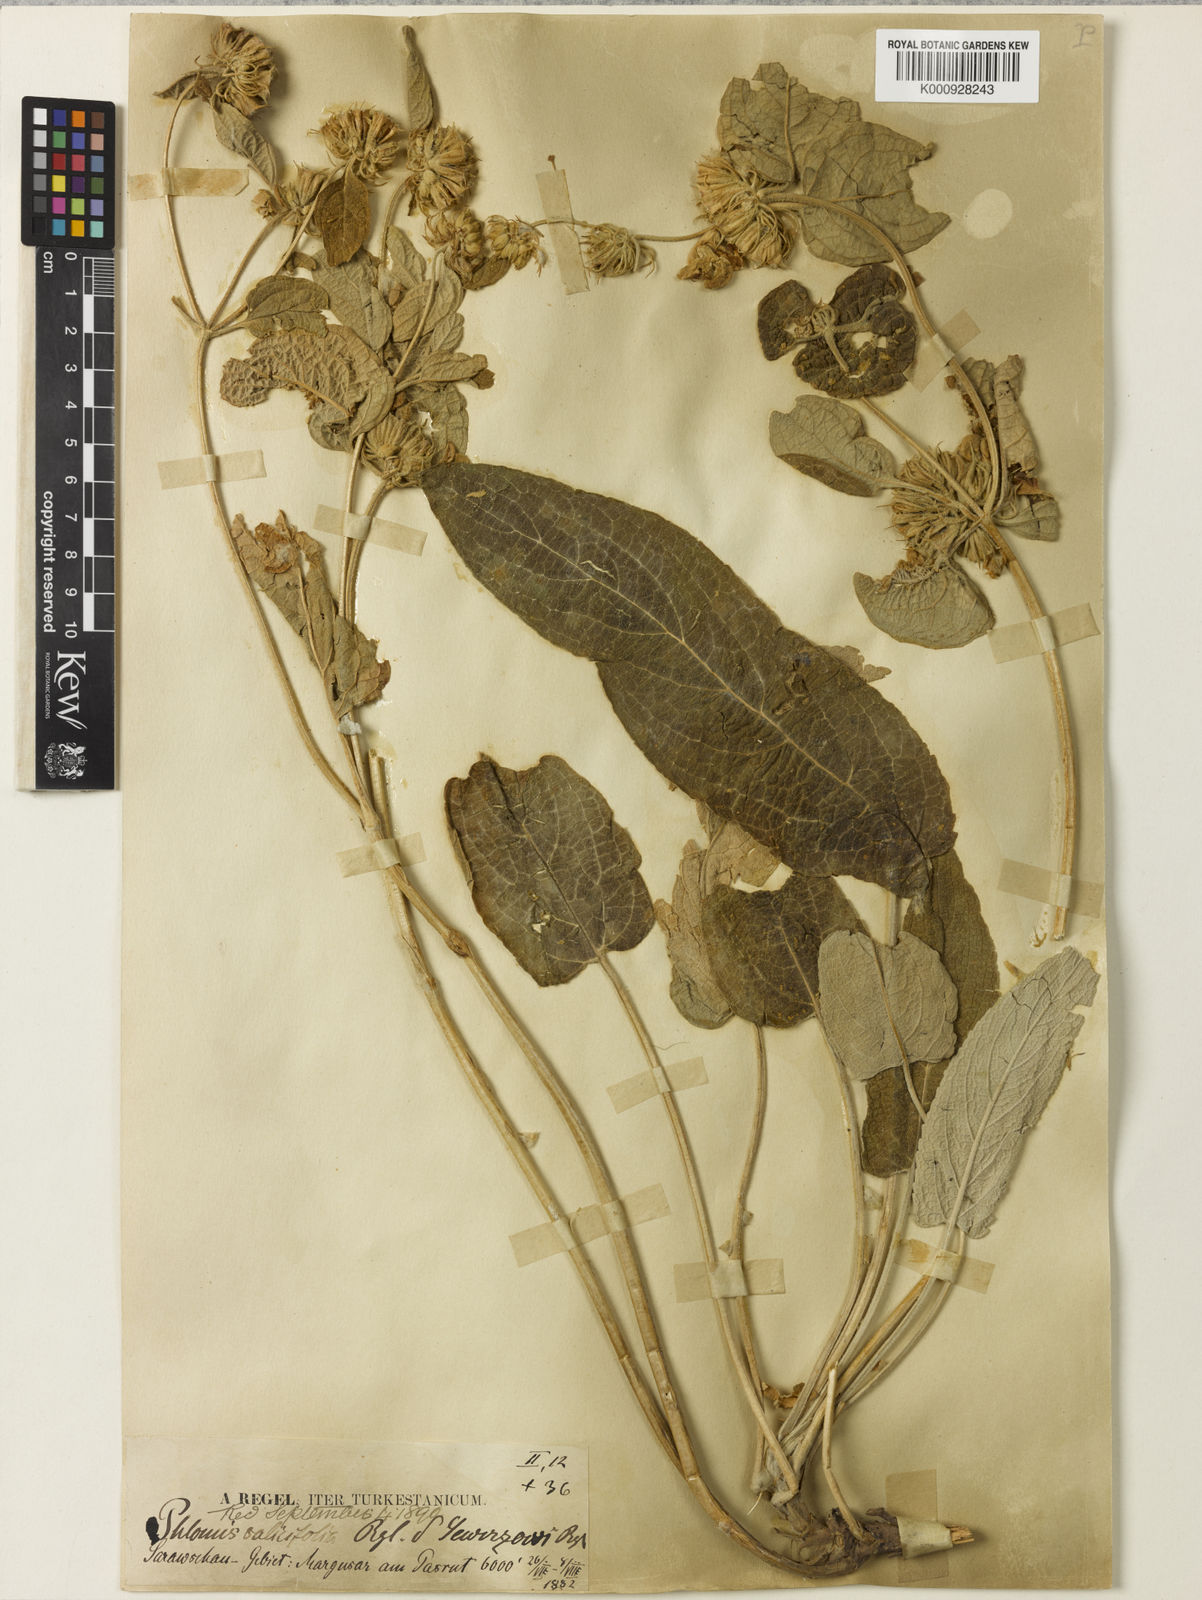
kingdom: Plantae
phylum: Tracheophyta
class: Magnoliopsida
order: Lamiales
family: Lamiaceae
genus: Phlomis
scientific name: Phlomis sewerzowii
